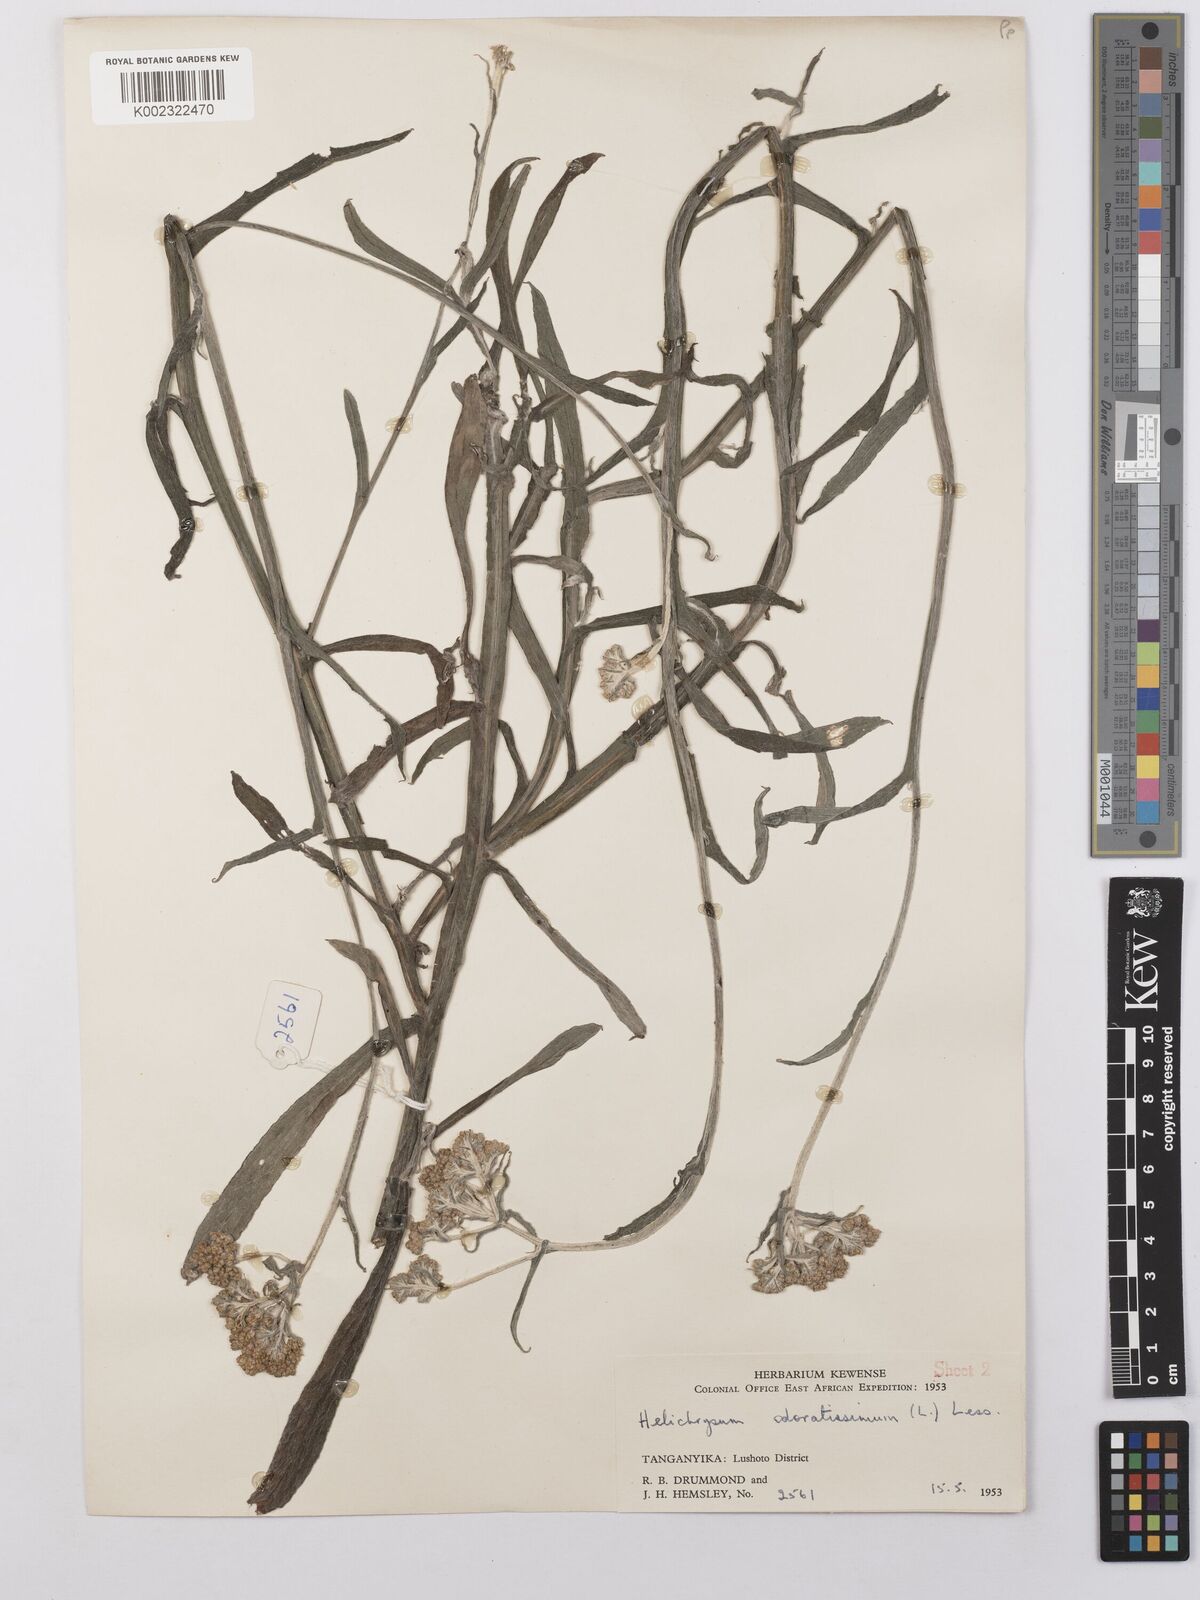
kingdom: Plantae
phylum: Tracheophyta
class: Magnoliopsida
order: Asterales
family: Asteraceae
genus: Helichrysum
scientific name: Helichrysum stenopterum
